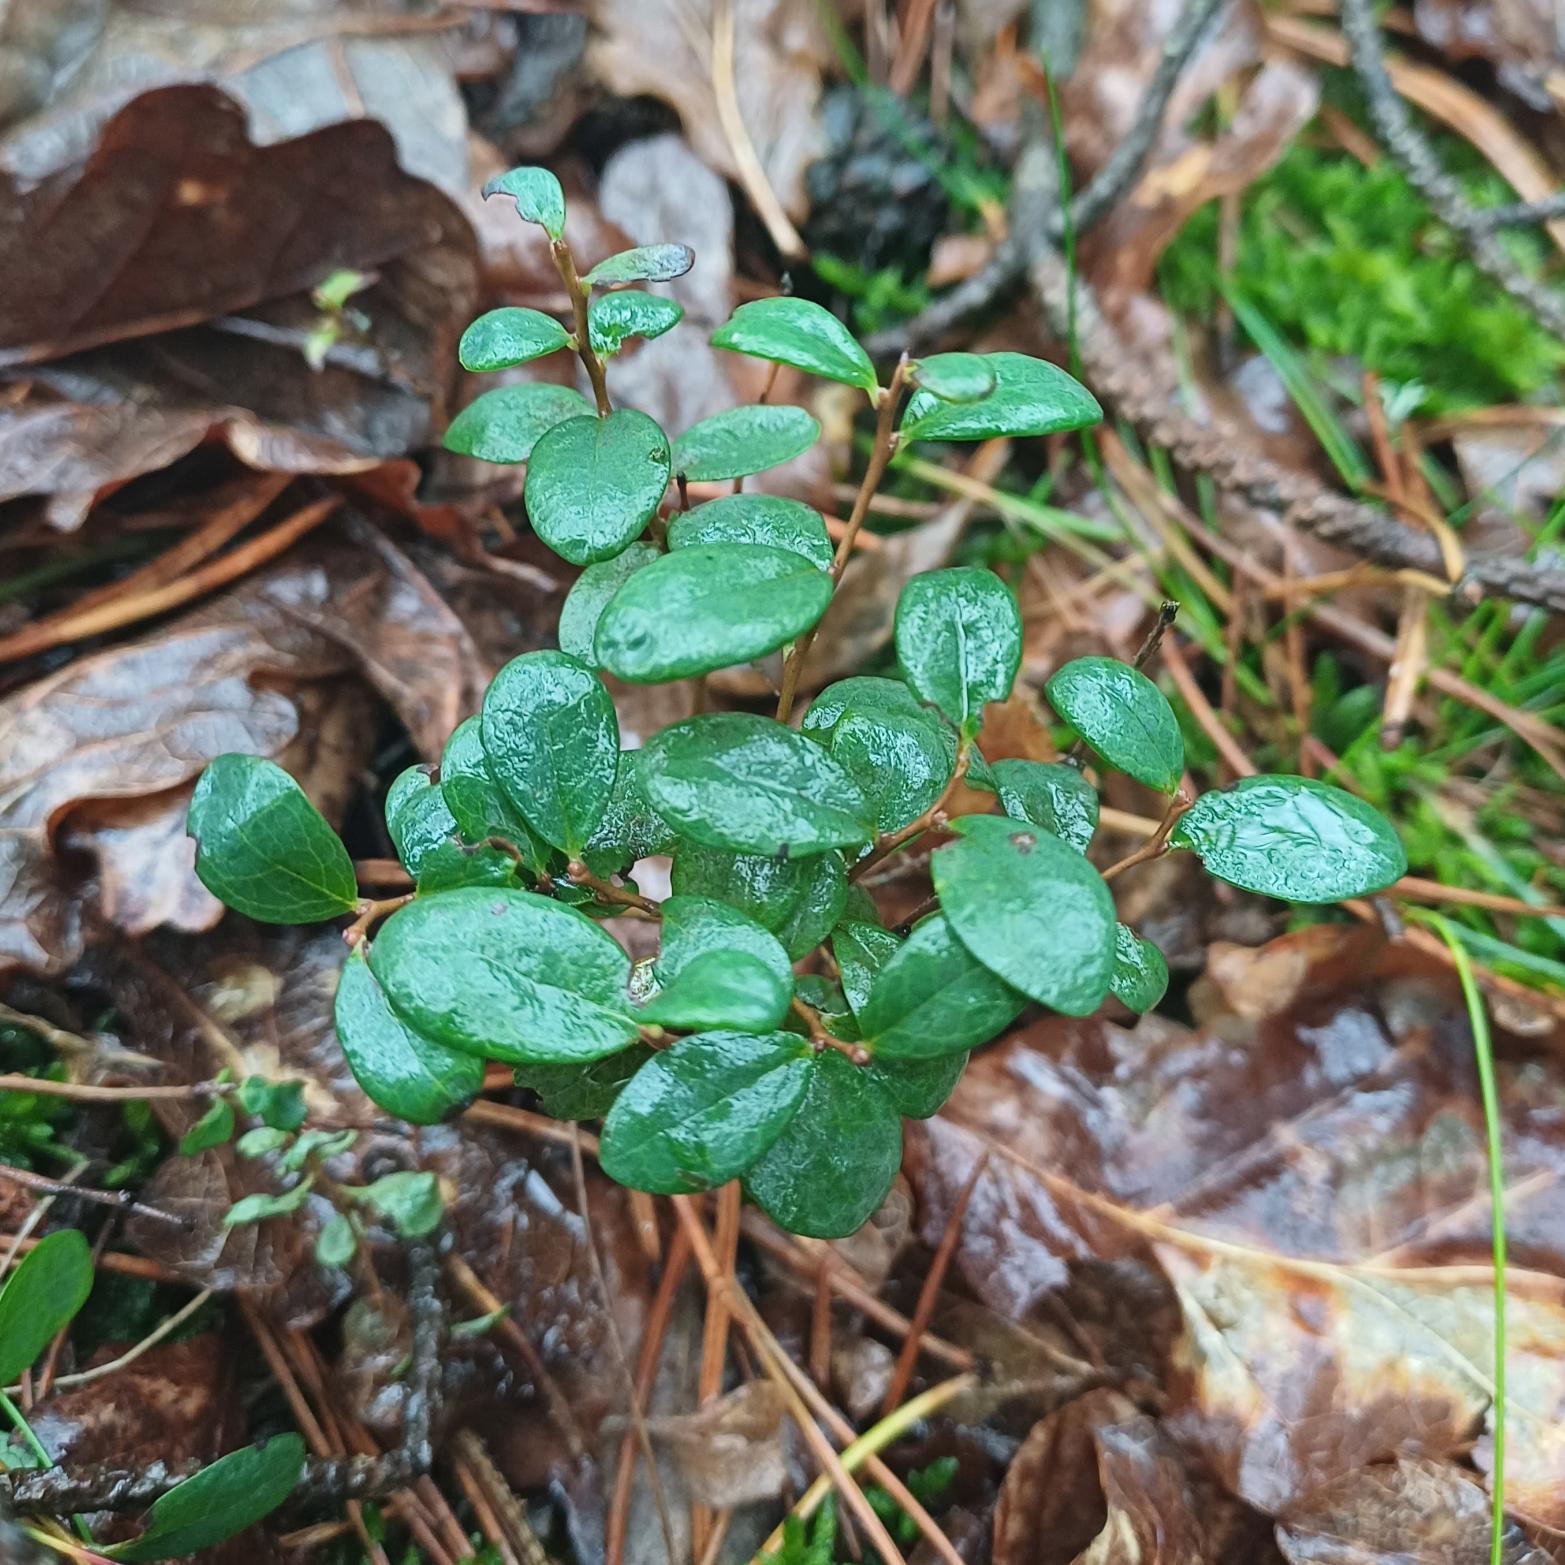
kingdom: Plantae
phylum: Tracheophyta
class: Magnoliopsida
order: Ericales
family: Ericaceae
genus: Vaccinium
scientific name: Vaccinium vitis-idaea
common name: Tyttebær
